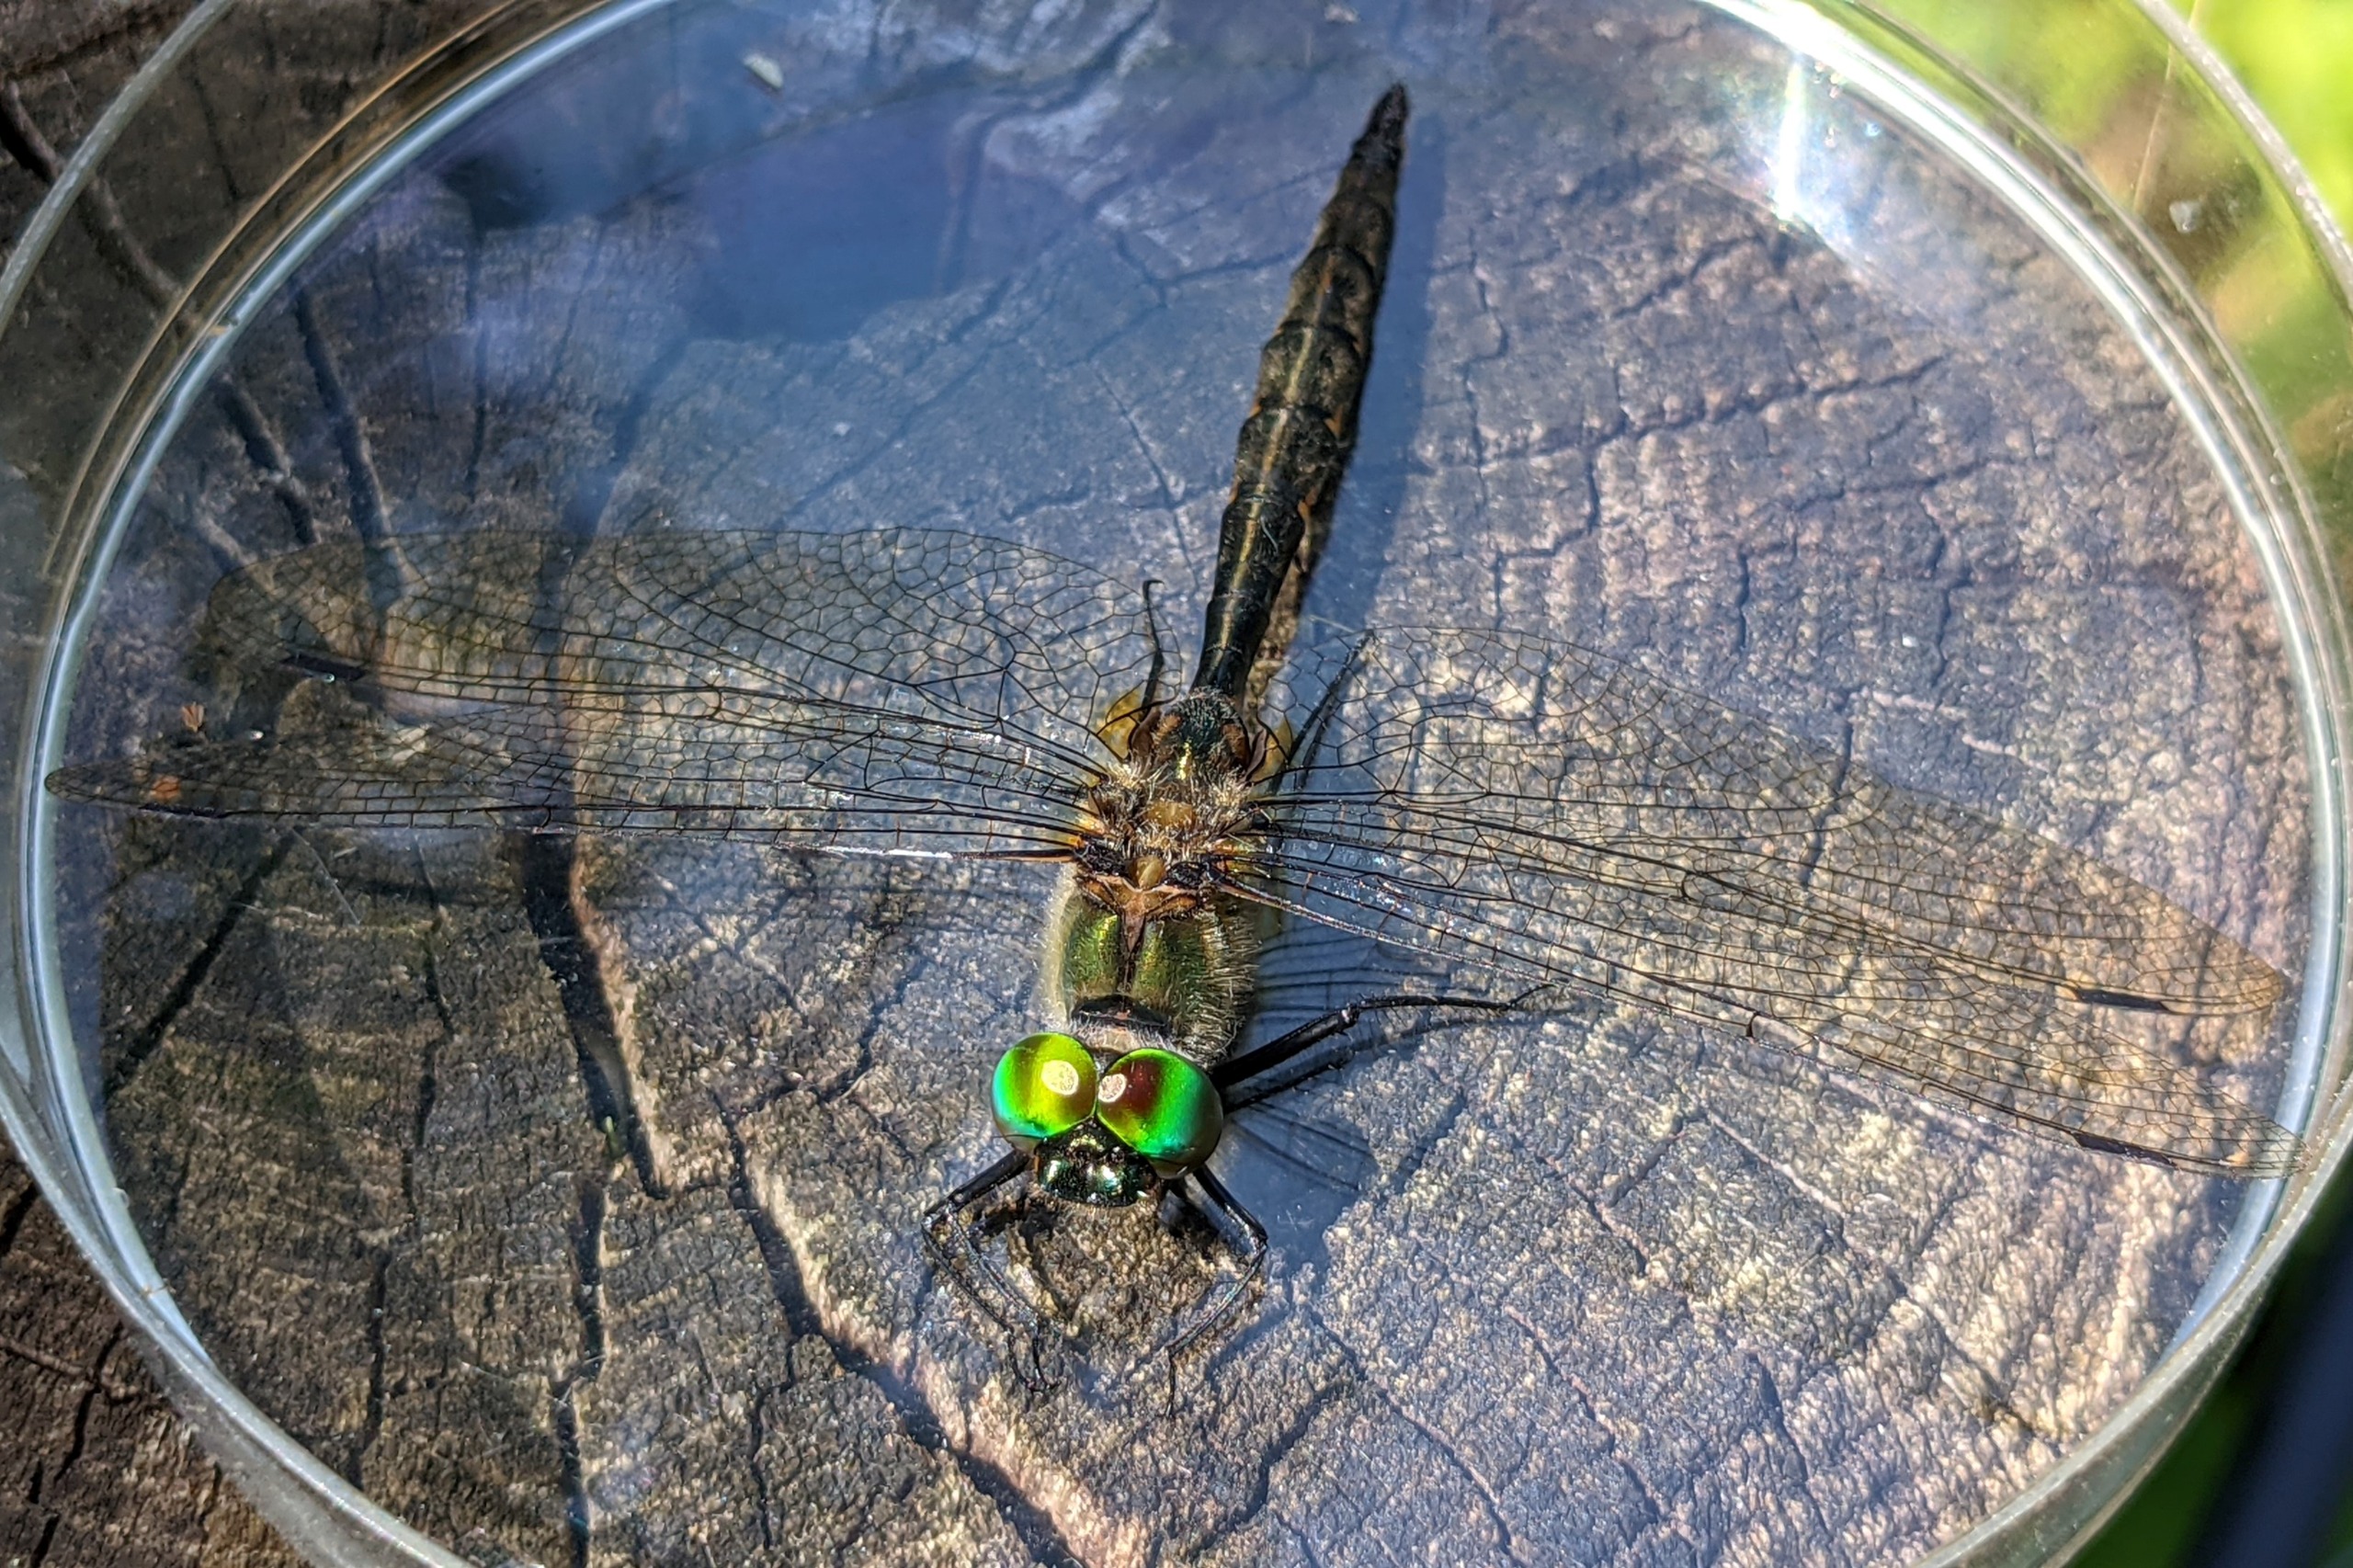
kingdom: Animalia
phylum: Arthropoda
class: Insecta
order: Odonata
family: Corduliidae
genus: Somatochlora
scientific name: Somatochlora flavomaculata
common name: Plettet smaragdlibel
